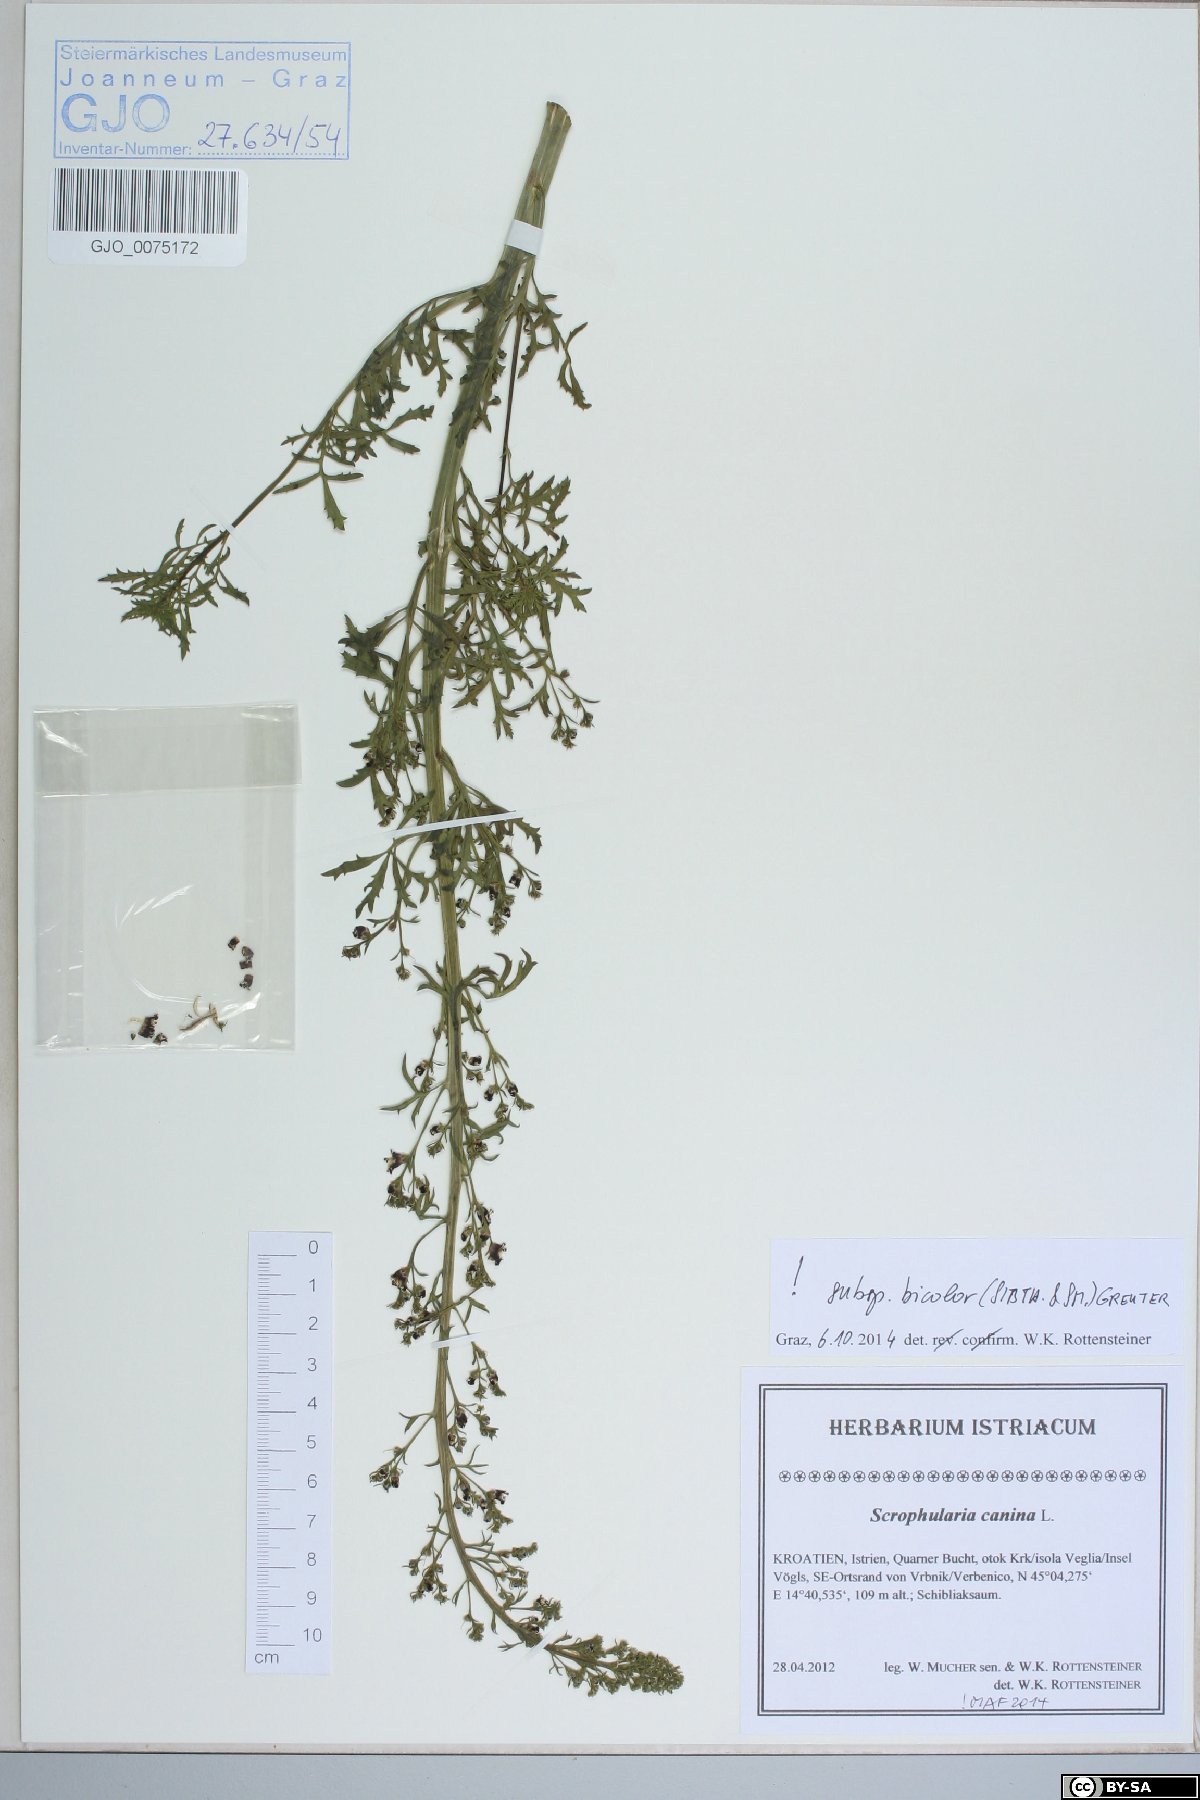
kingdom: Plantae
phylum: Tracheophyta
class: Magnoliopsida
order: Lamiales
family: Scrophulariaceae
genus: Scrophularia
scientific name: Scrophularia canina
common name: French figwort
